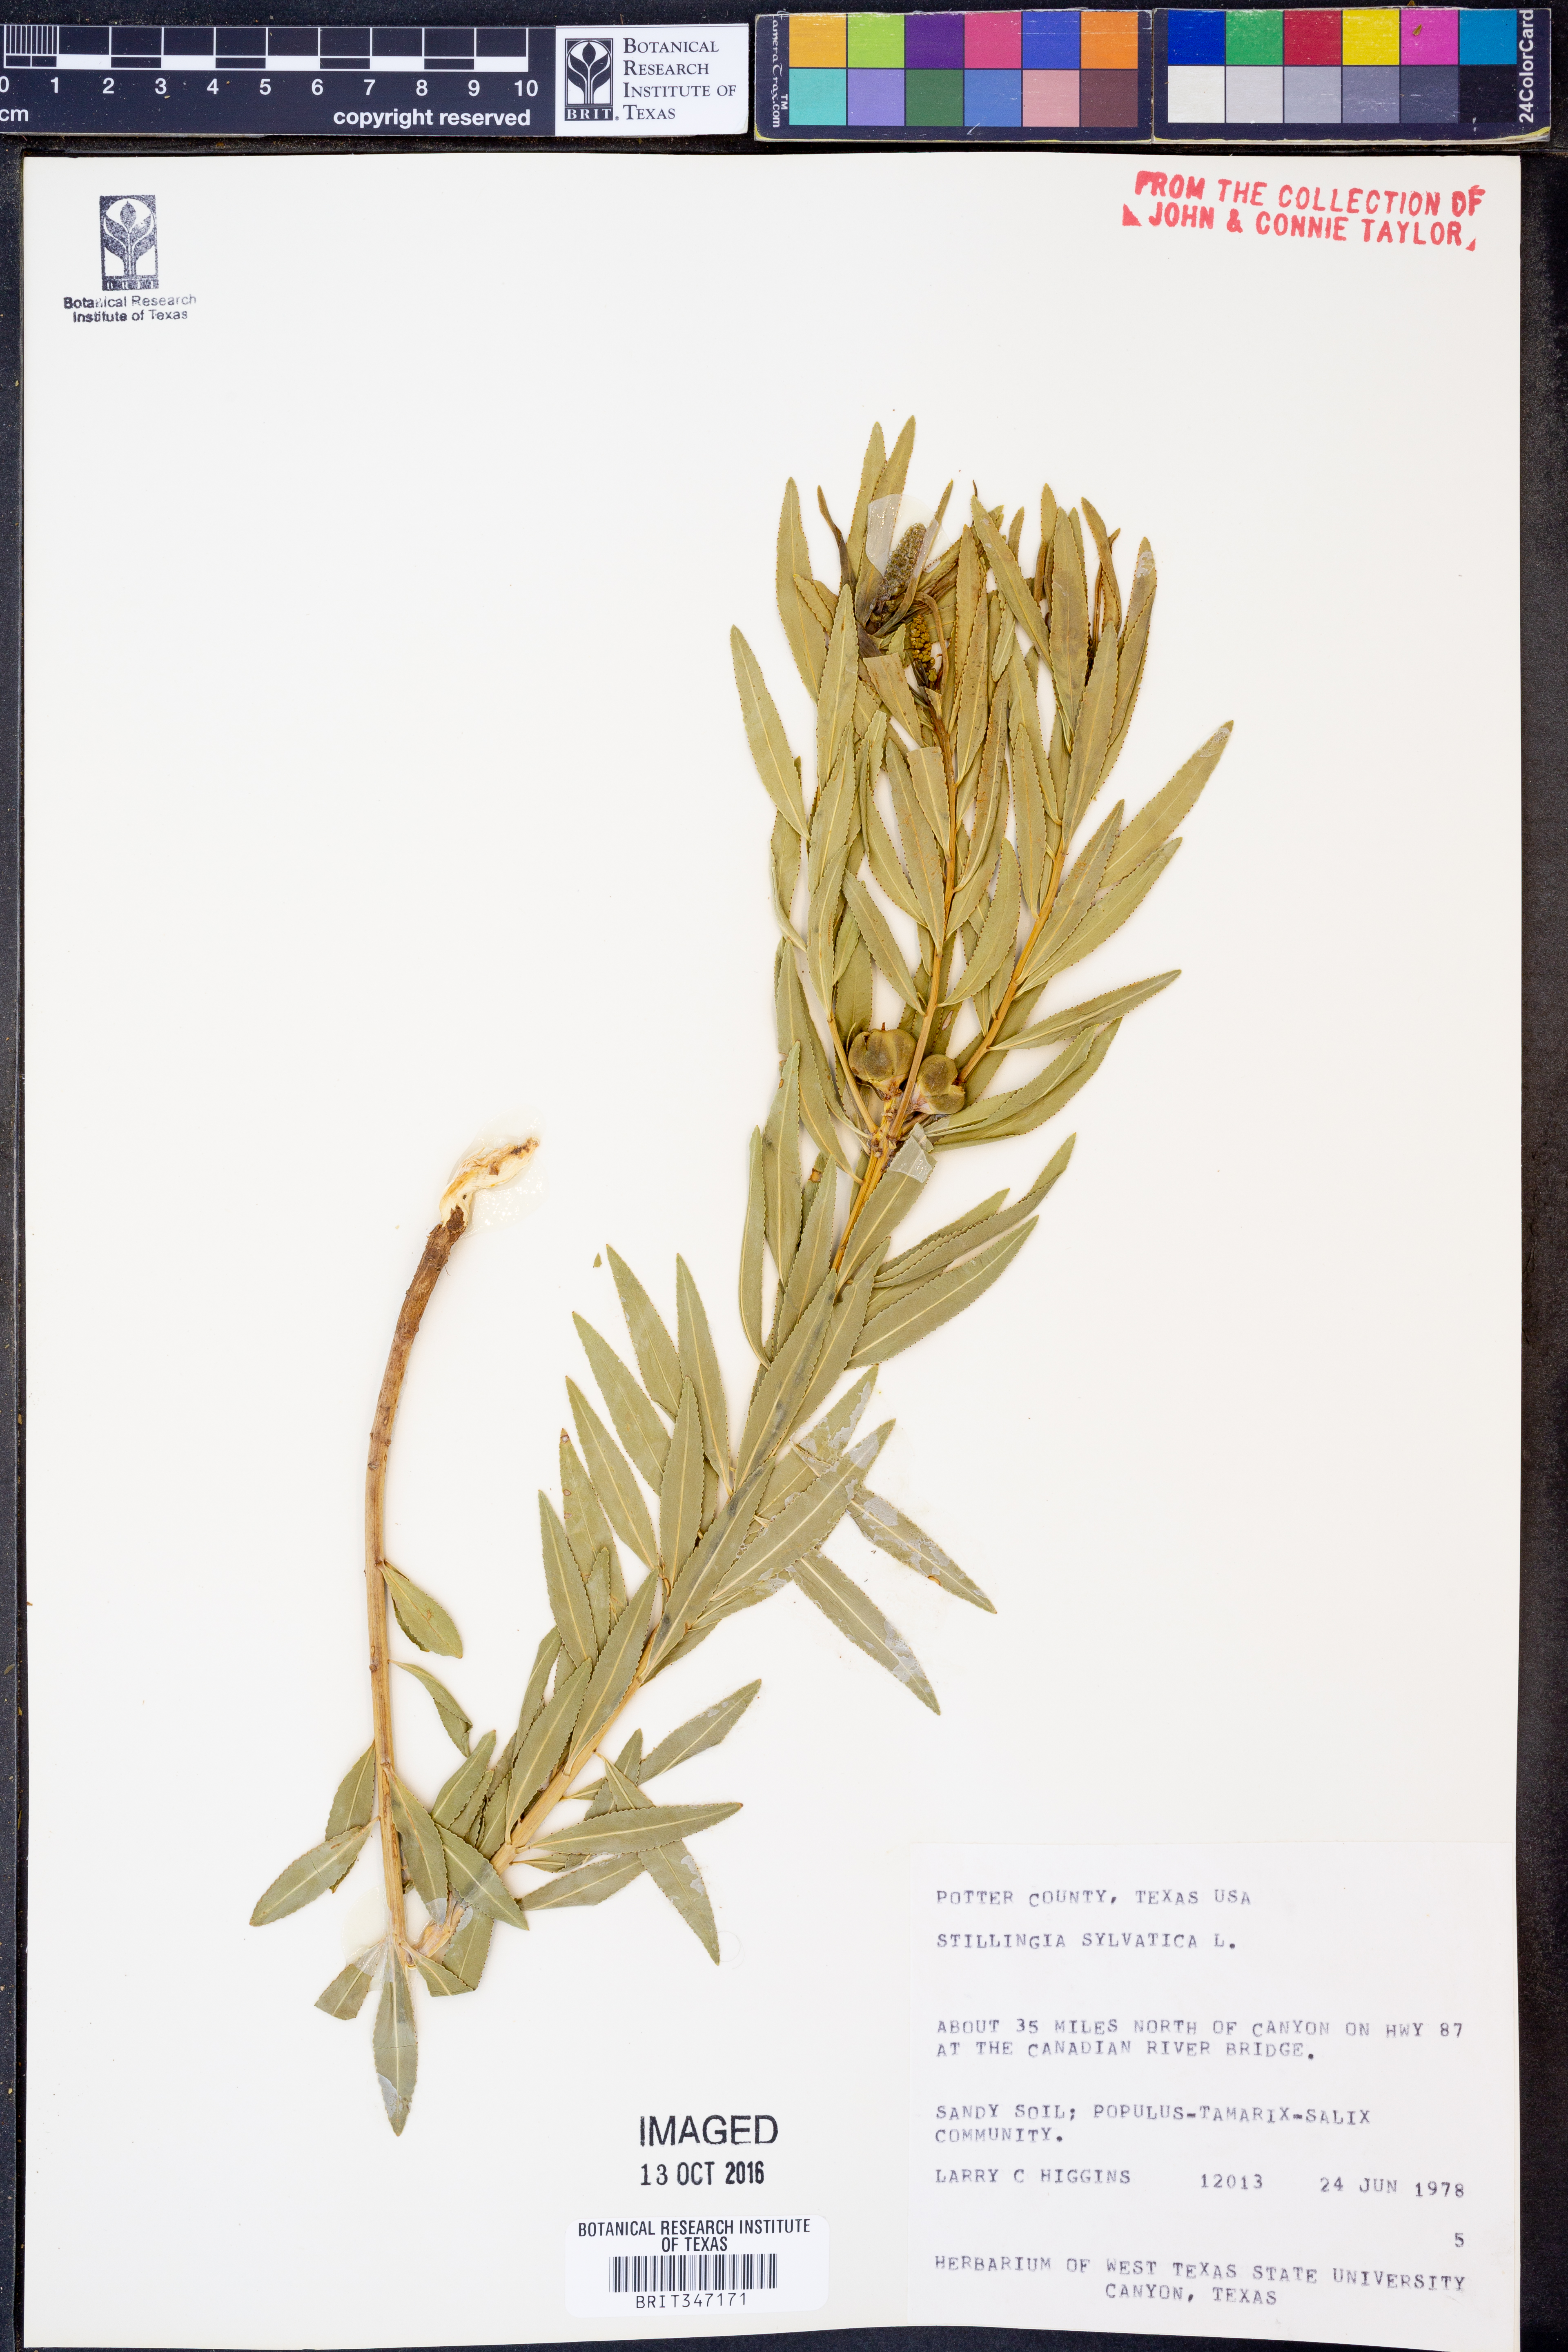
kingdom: Plantae
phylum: Tracheophyta
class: Magnoliopsida
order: Malpighiales
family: Euphorbiaceae
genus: Stillingia
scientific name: Stillingia sylvatica
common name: Queen's-delight
